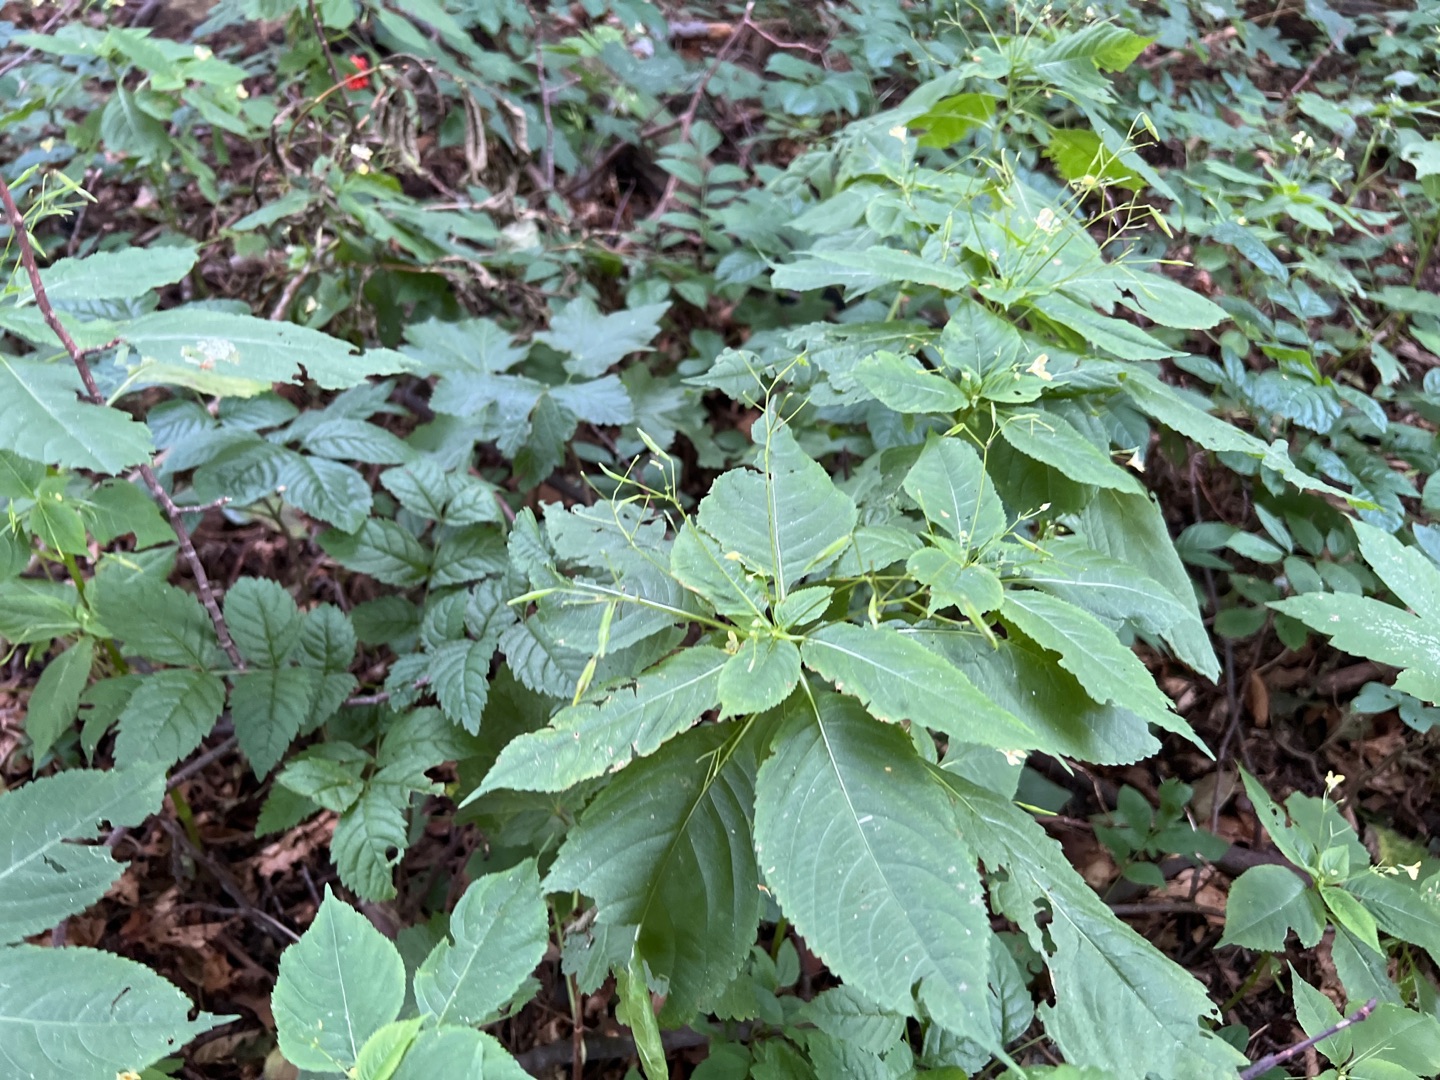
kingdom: Plantae
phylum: Tracheophyta
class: Magnoliopsida
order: Ericales
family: Balsaminaceae
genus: Impatiens
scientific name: Impatiens parviflora
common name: Småblomstret balsamin
